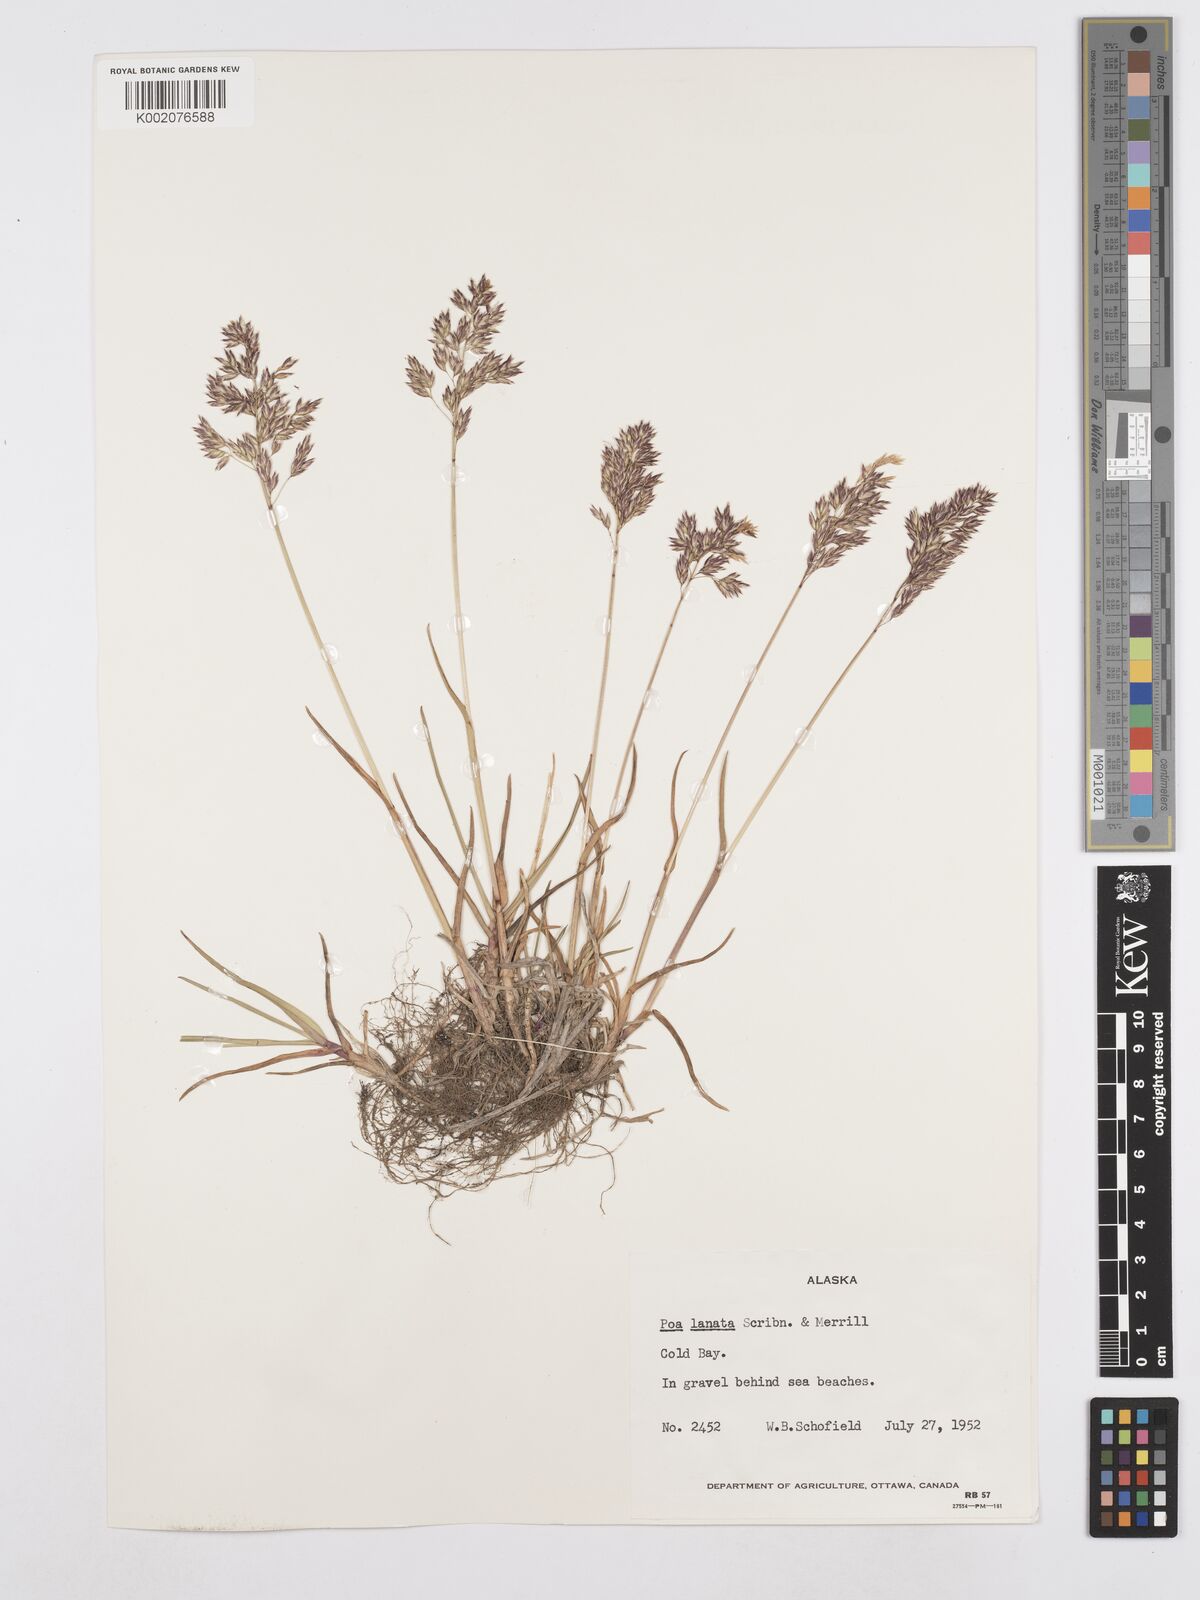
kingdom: Plantae
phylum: Tracheophyta
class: Liliopsida
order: Poales
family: Poaceae
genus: Poa
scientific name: Poa lanata
